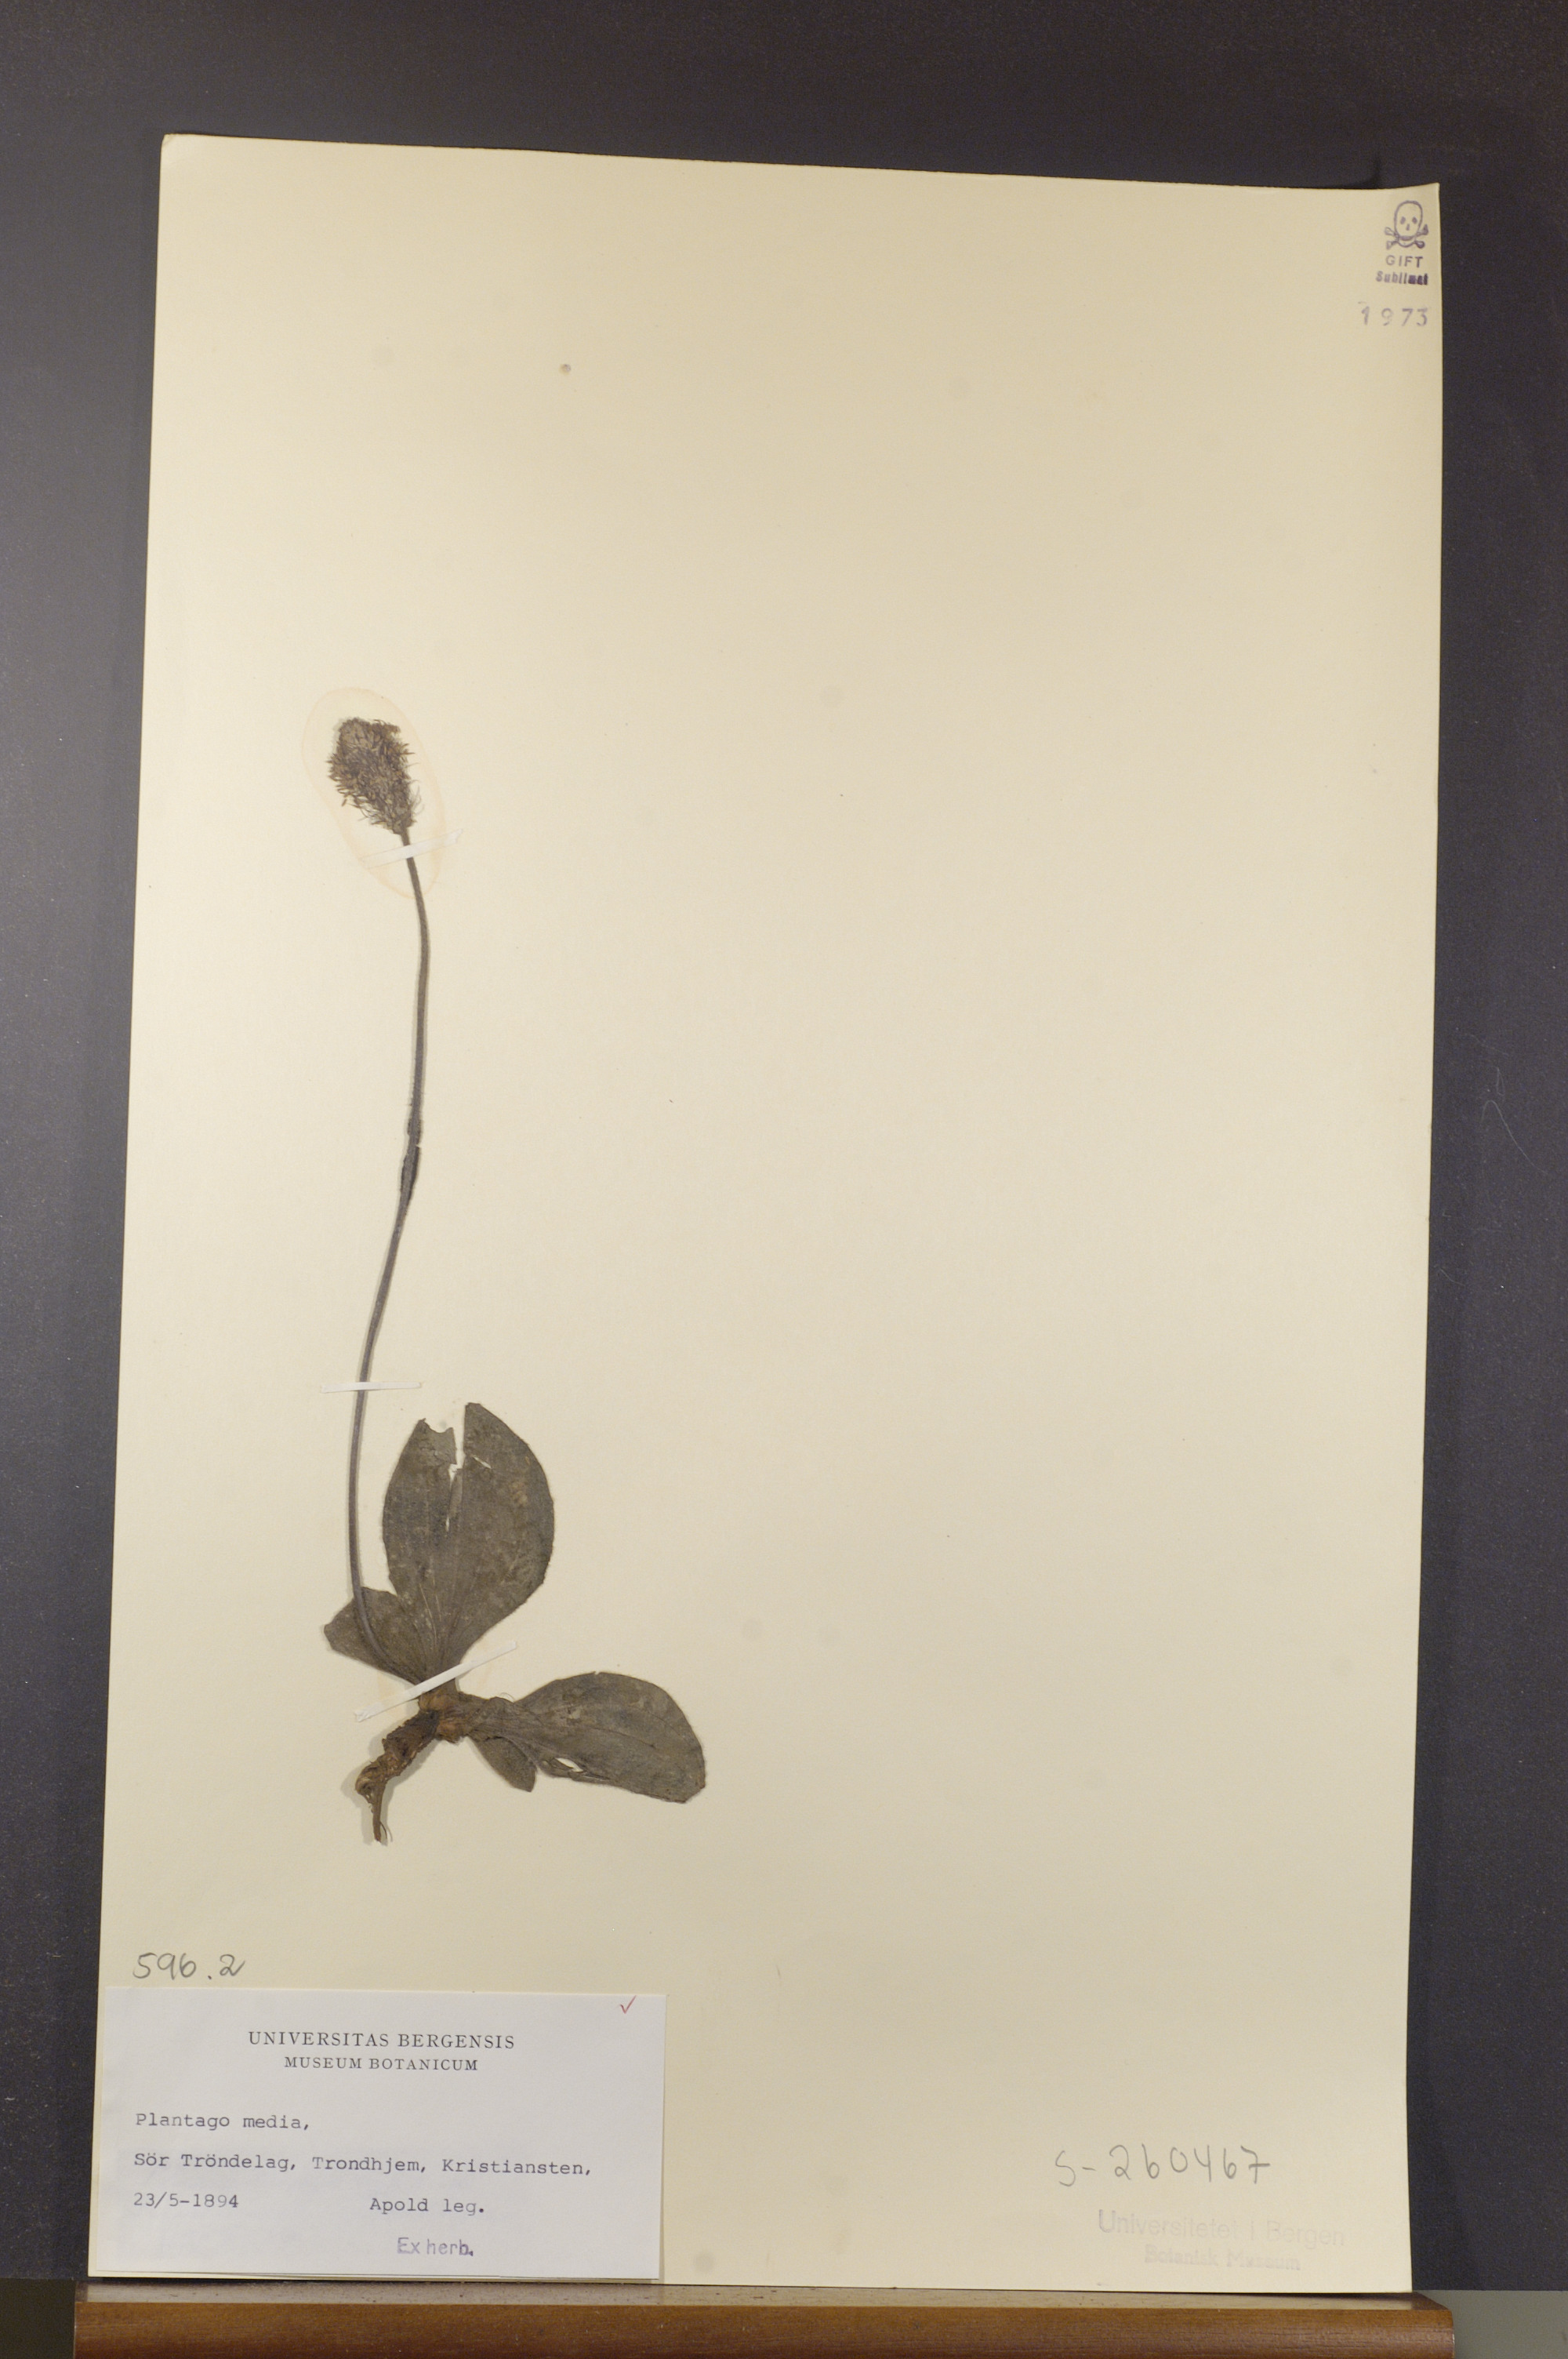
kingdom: Plantae
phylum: Tracheophyta
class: Magnoliopsida
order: Lamiales
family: Plantaginaceae
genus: Plantago
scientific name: Plantago media
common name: Hoary plantain
